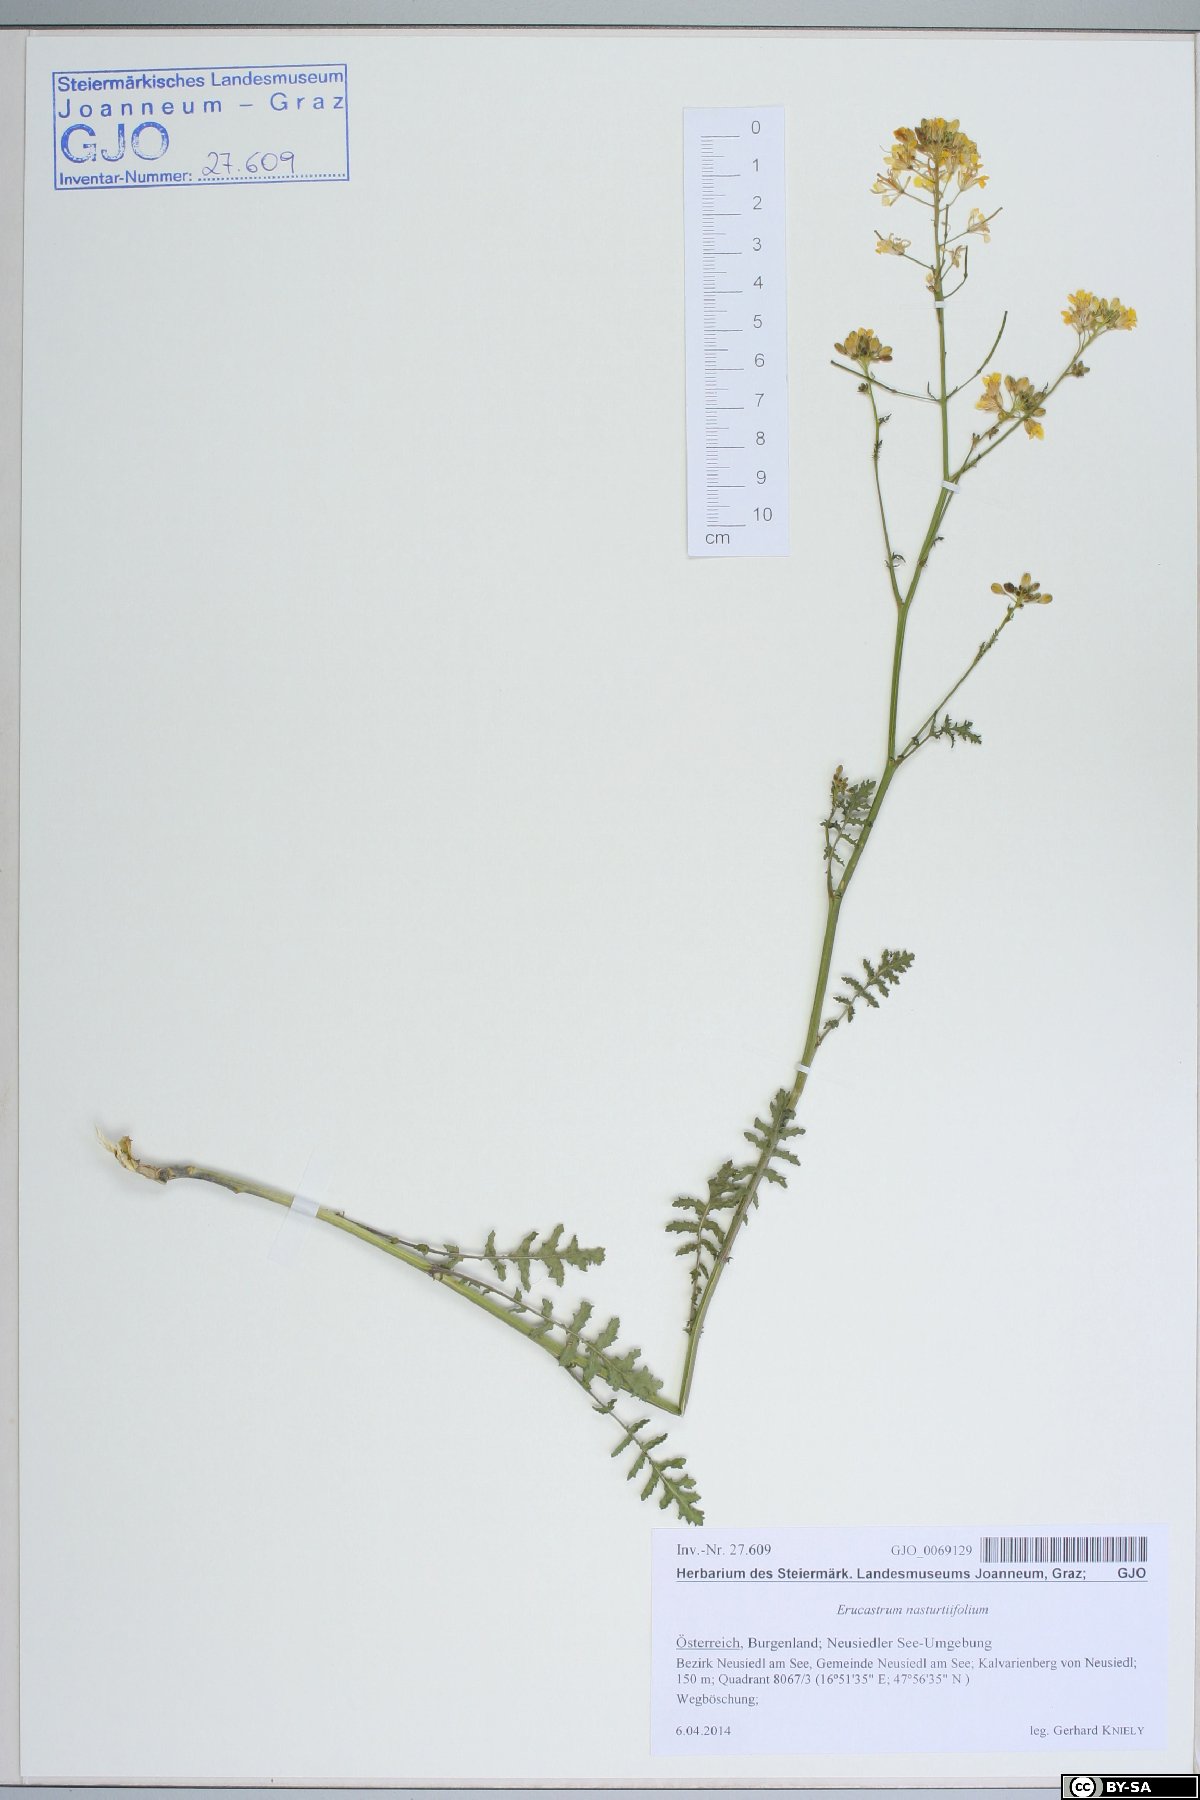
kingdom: Plantae
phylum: Tracheophyta
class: Magnoliopsida
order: Brassicales
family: Brassicaceae
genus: Erucastrum
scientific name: Erucastrum nasturtiifolium
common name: Watercress-leaf rocket
